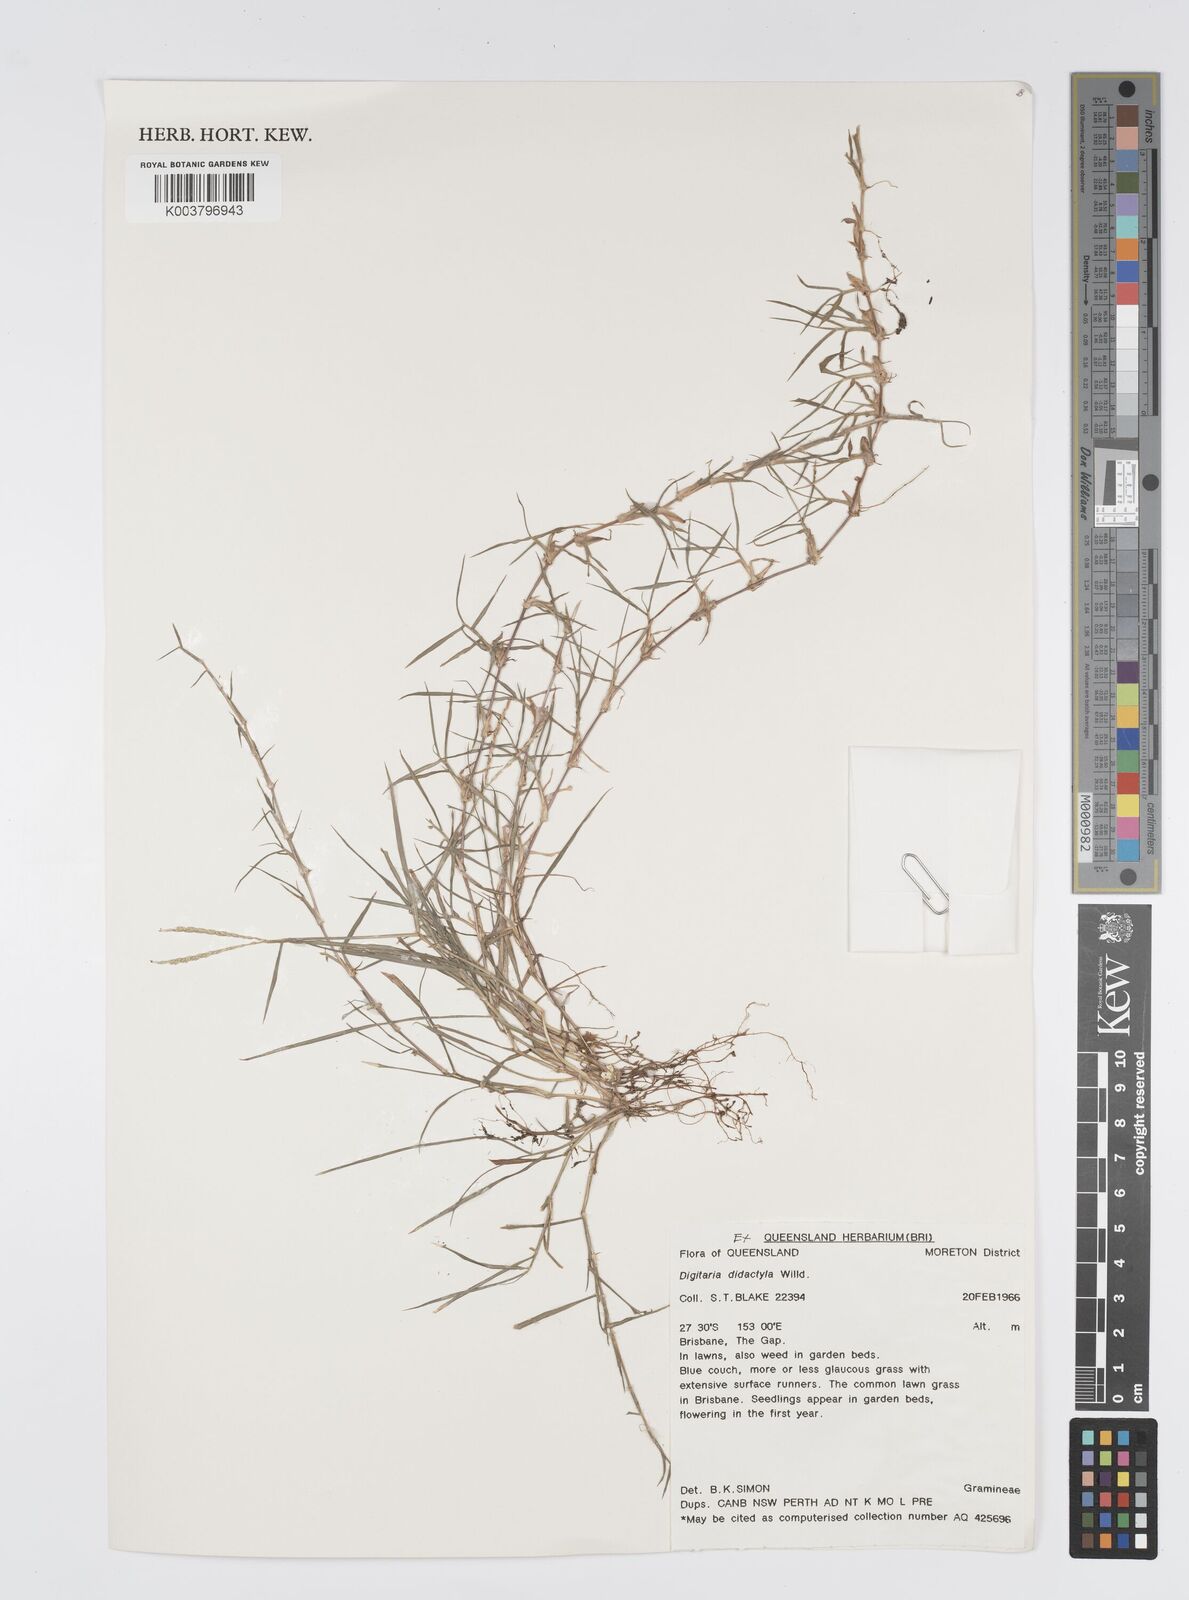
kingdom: Plantae
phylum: Tracheophyta
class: Liliopsida
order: Poales
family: Poaceae
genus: Digitaria
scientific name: Digitaria didactyla
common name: Blue couch
